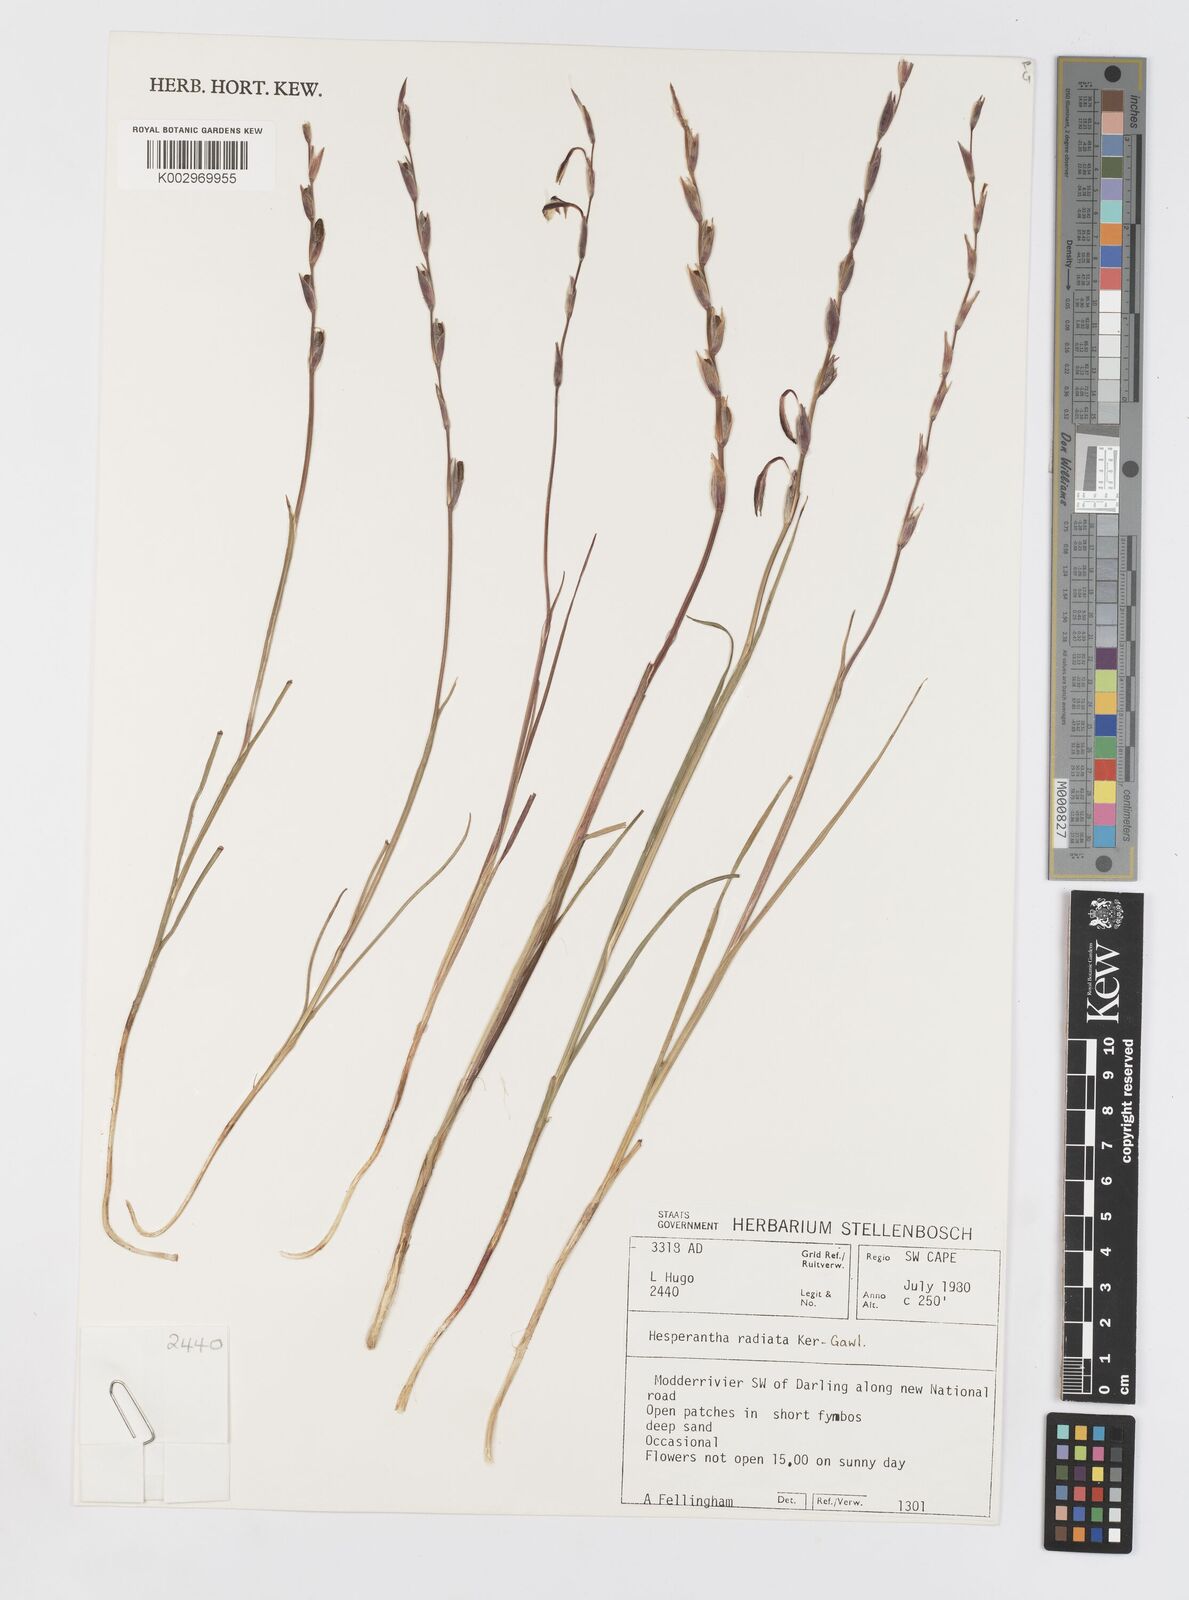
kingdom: Plantae
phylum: Tracheophyta
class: Liliopsida
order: Asparagales
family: Iridaceae
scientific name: Iridaceae
